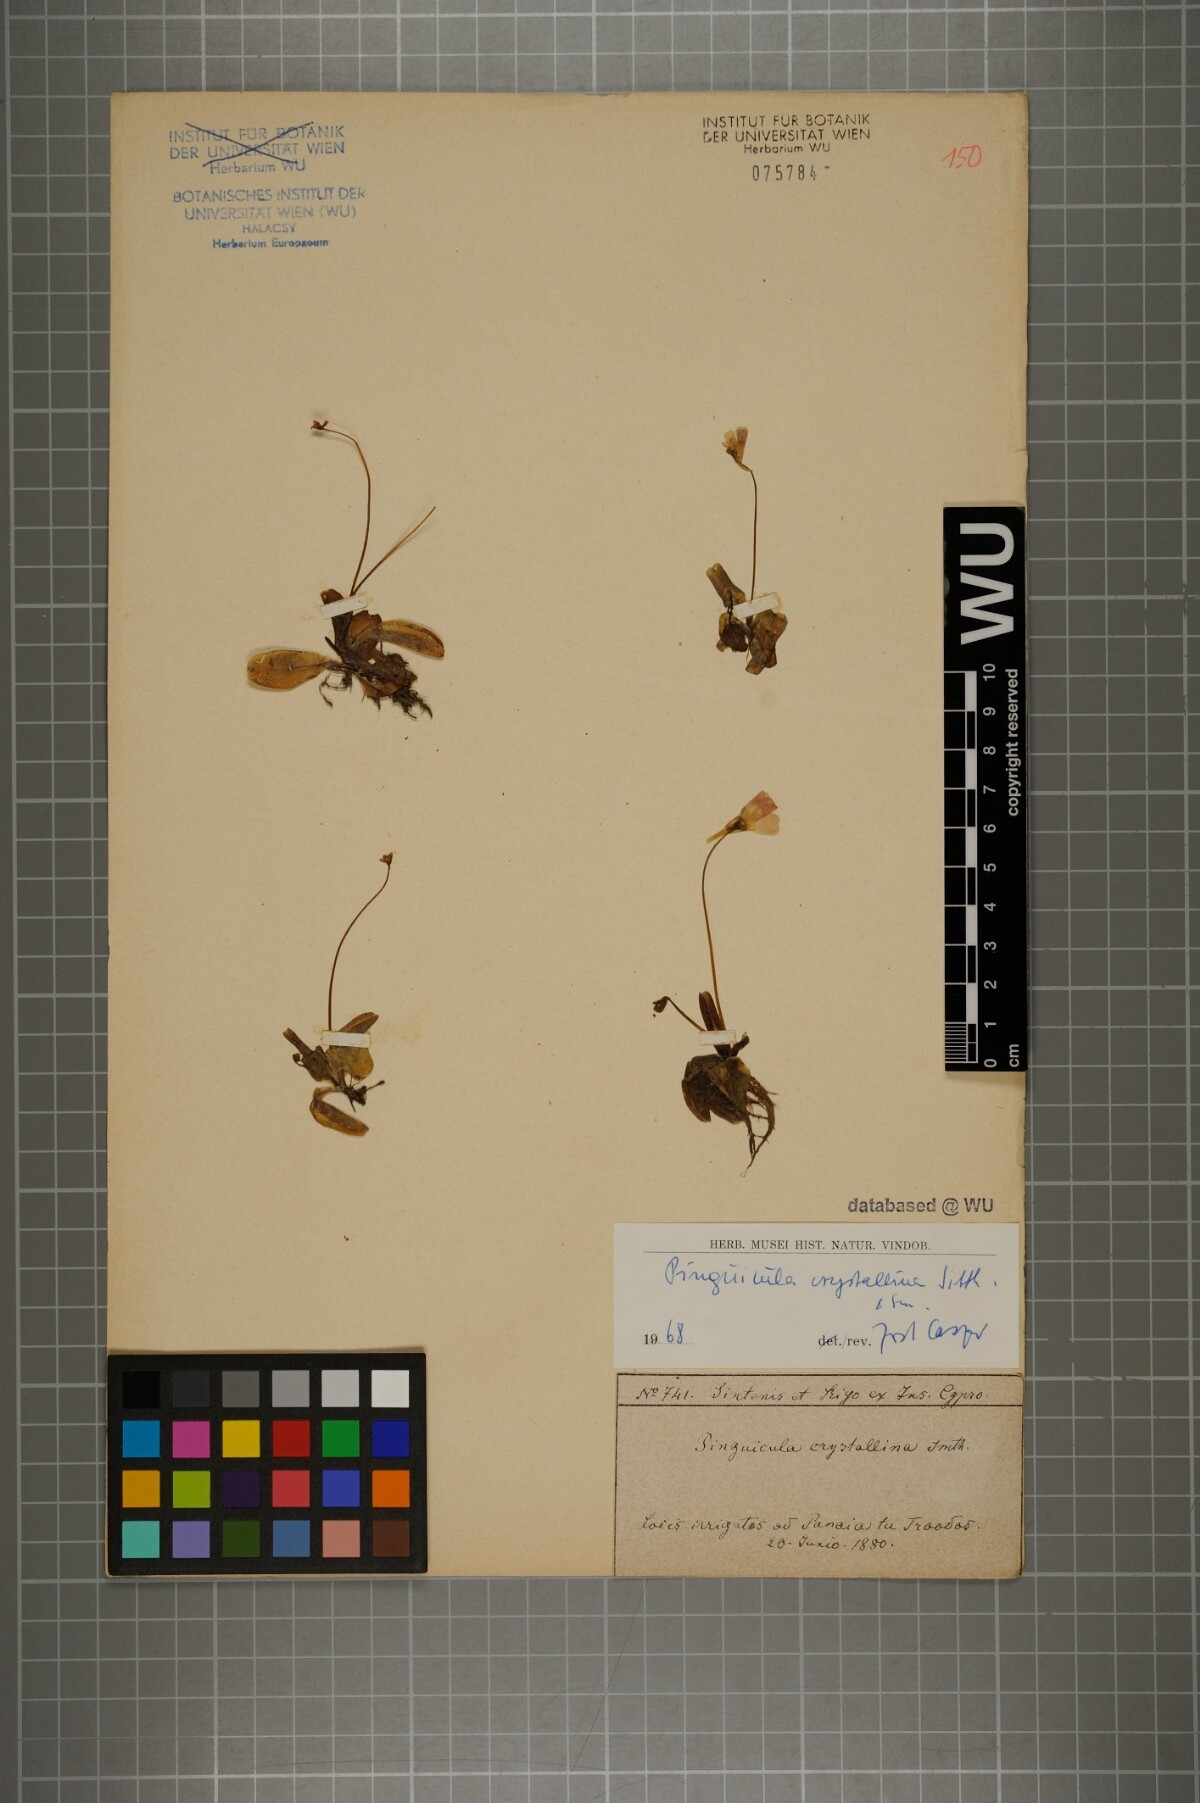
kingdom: Plantae
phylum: Tracheophyta
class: Magnoliopsida
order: Lamiales
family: Lentibulariaceae
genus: Pinguicula
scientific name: Pinguicula crystallina
